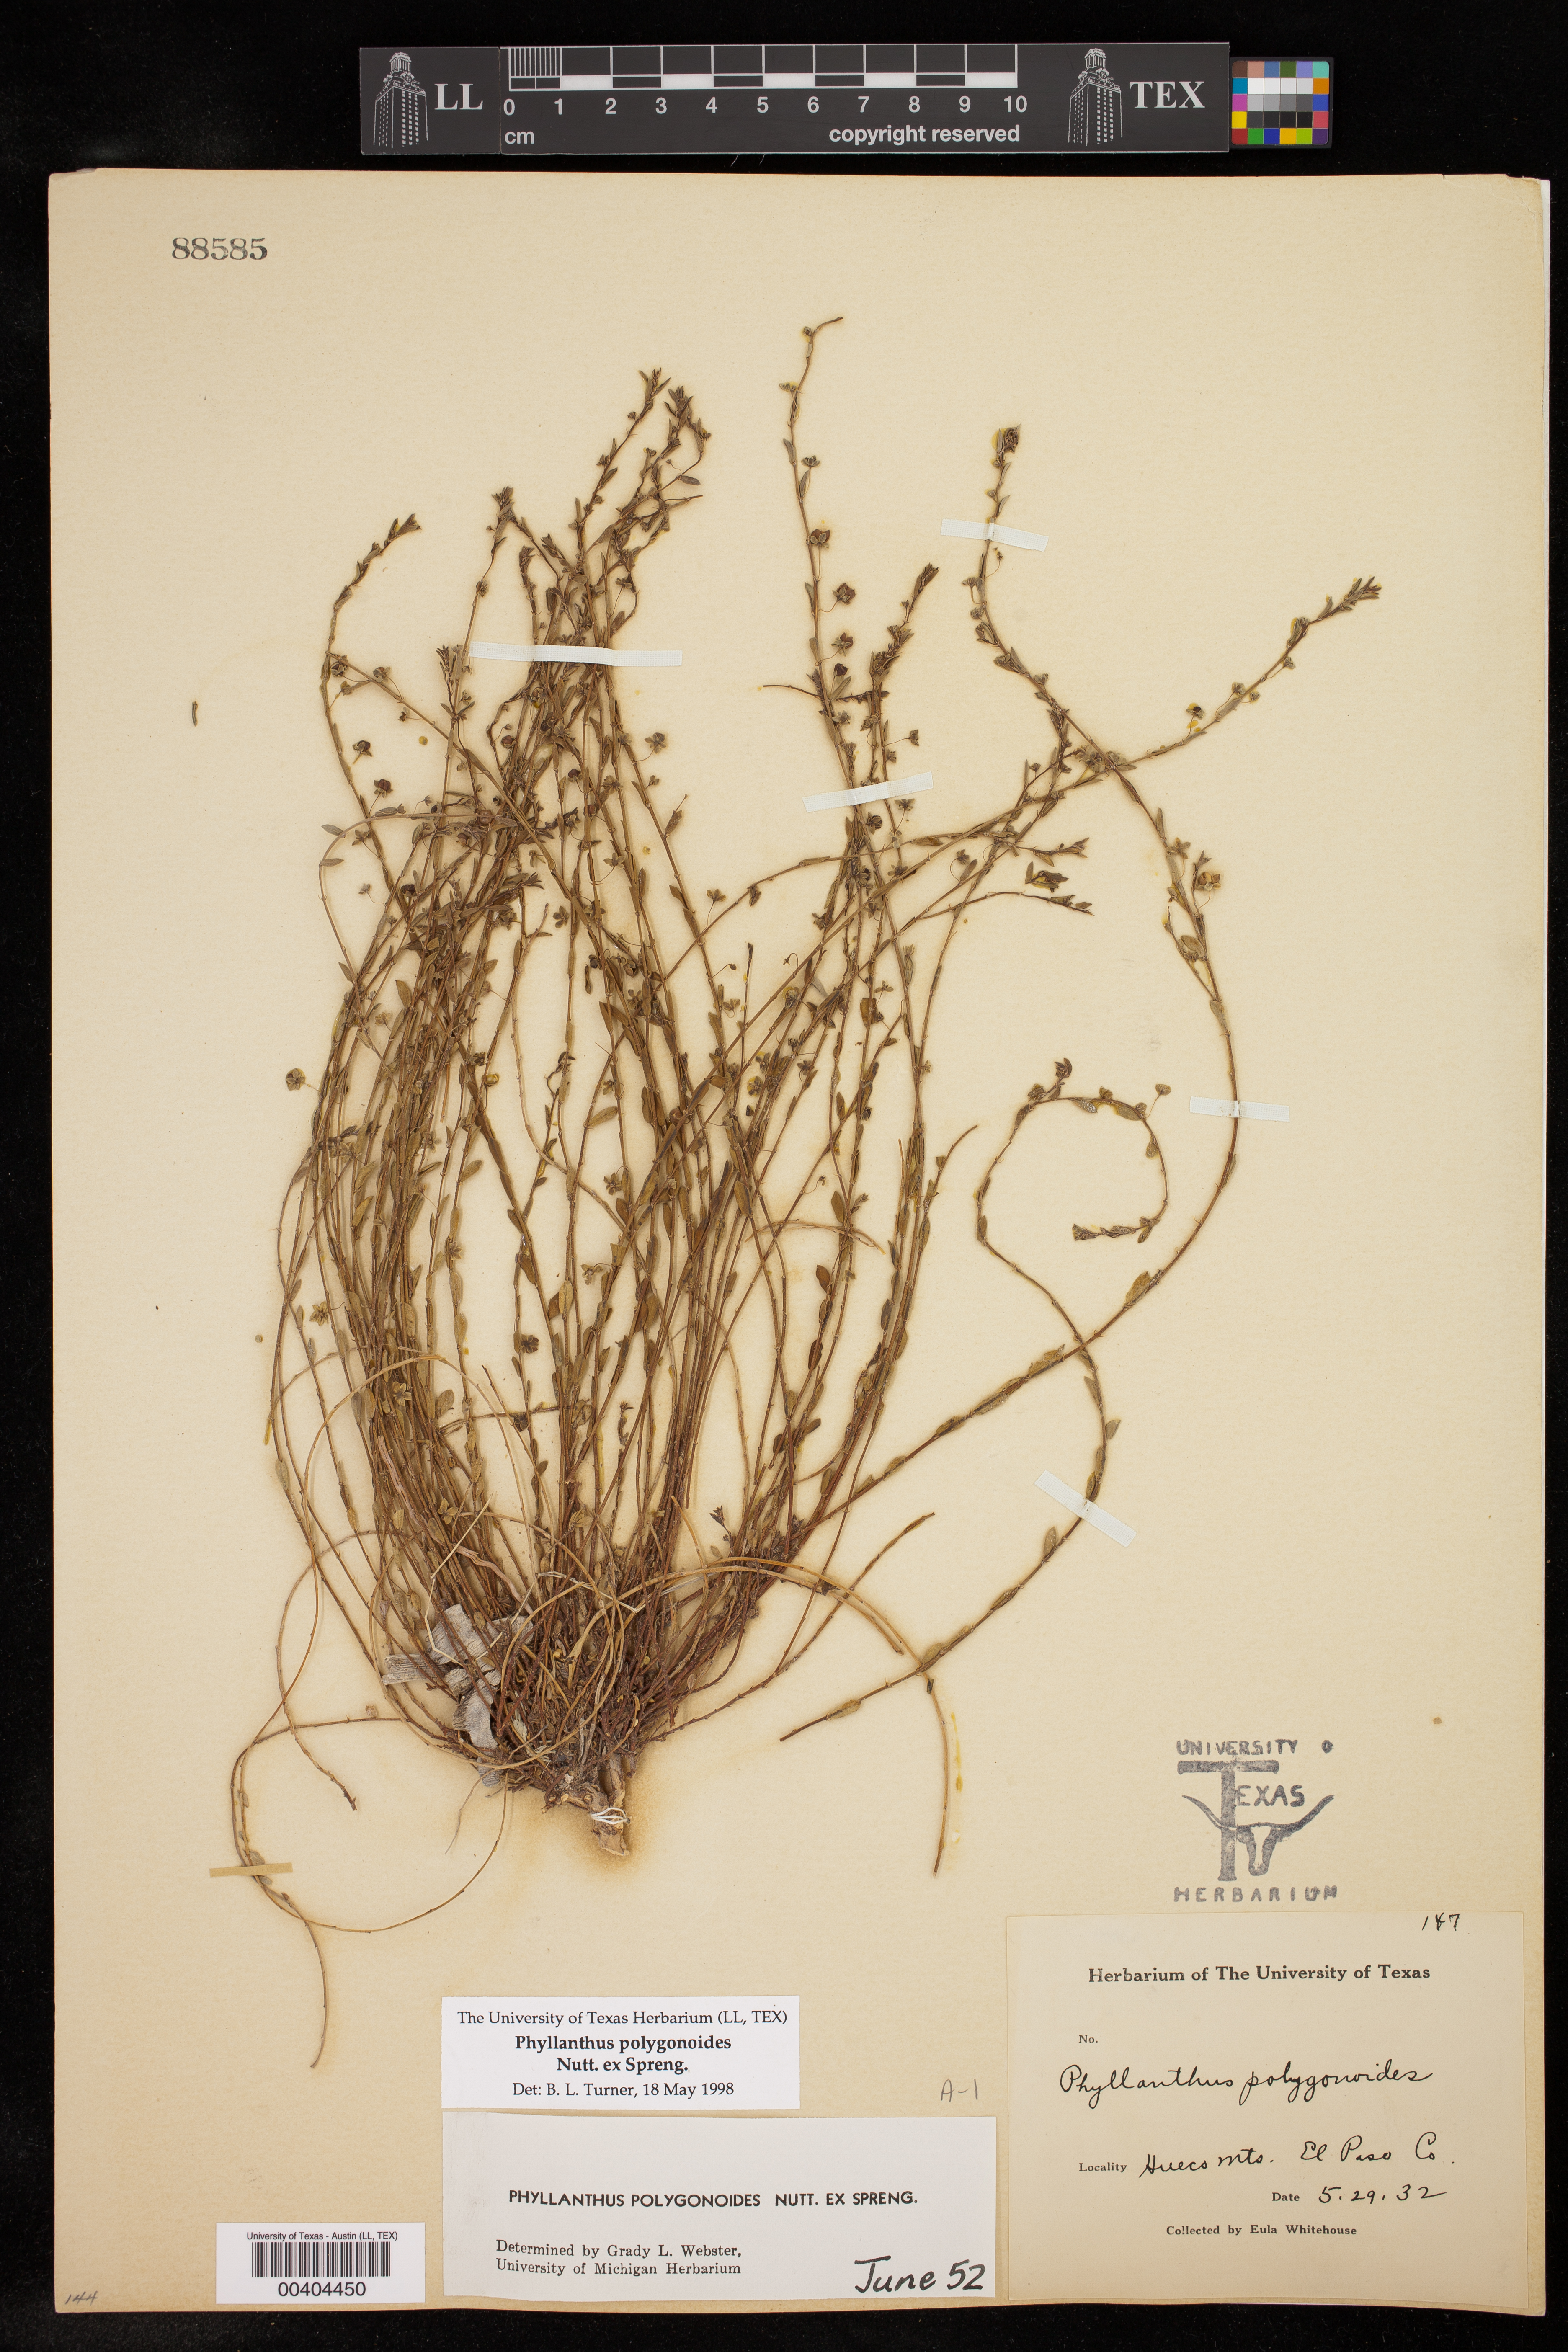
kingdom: Plantae
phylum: Tracheophyta
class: Magnoliopsida
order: Malpighiales
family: Phyllanthaceae
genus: Phyllanthus
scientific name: Phyllanthus polygonoides
